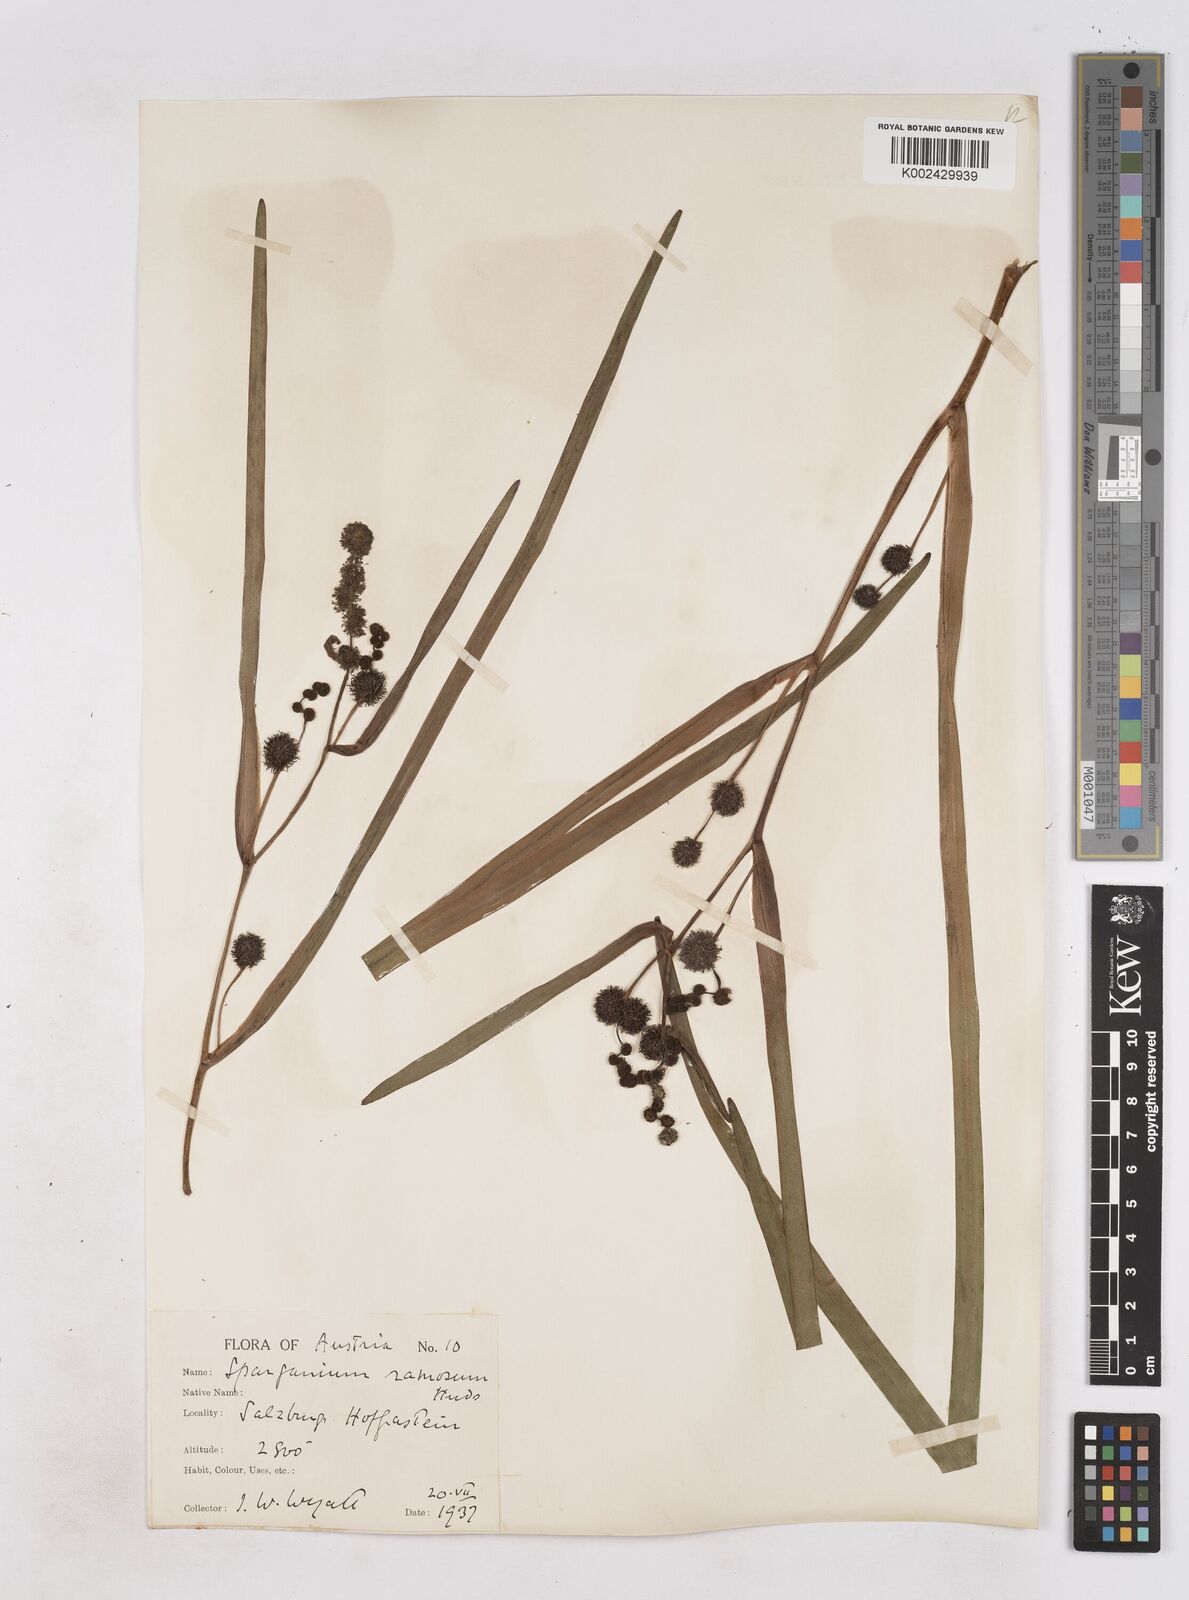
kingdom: Plantae
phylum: Tracheophyta
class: Liliopsida
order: Poales
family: Typhaceae
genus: Sparganium
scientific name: Sparganium erectum
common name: Branched bur-reed
